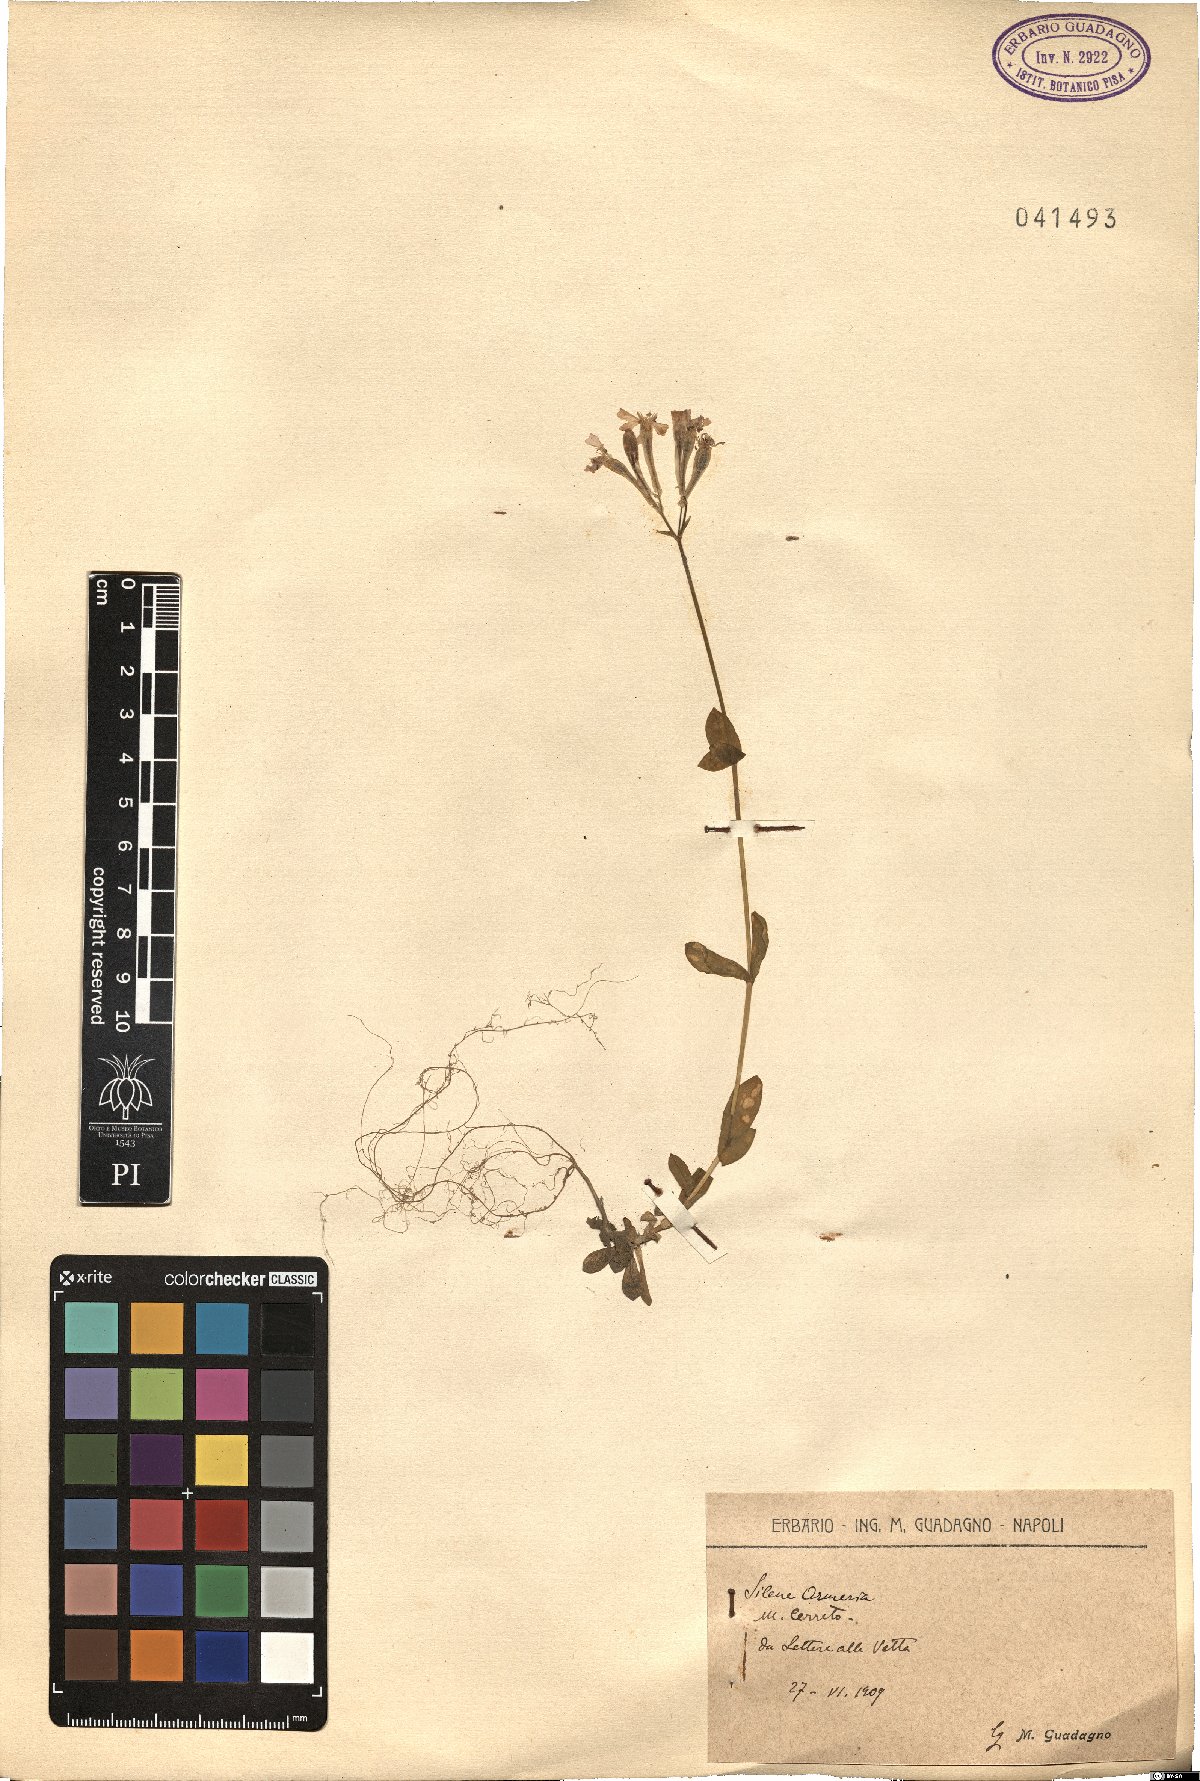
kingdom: Plantae
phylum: Tracheophyta
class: Magnoliopsida
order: Caryophyllales
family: Caryophyllaceae
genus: Atocion
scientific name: Atocion armeria
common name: Sweet william catchfly
